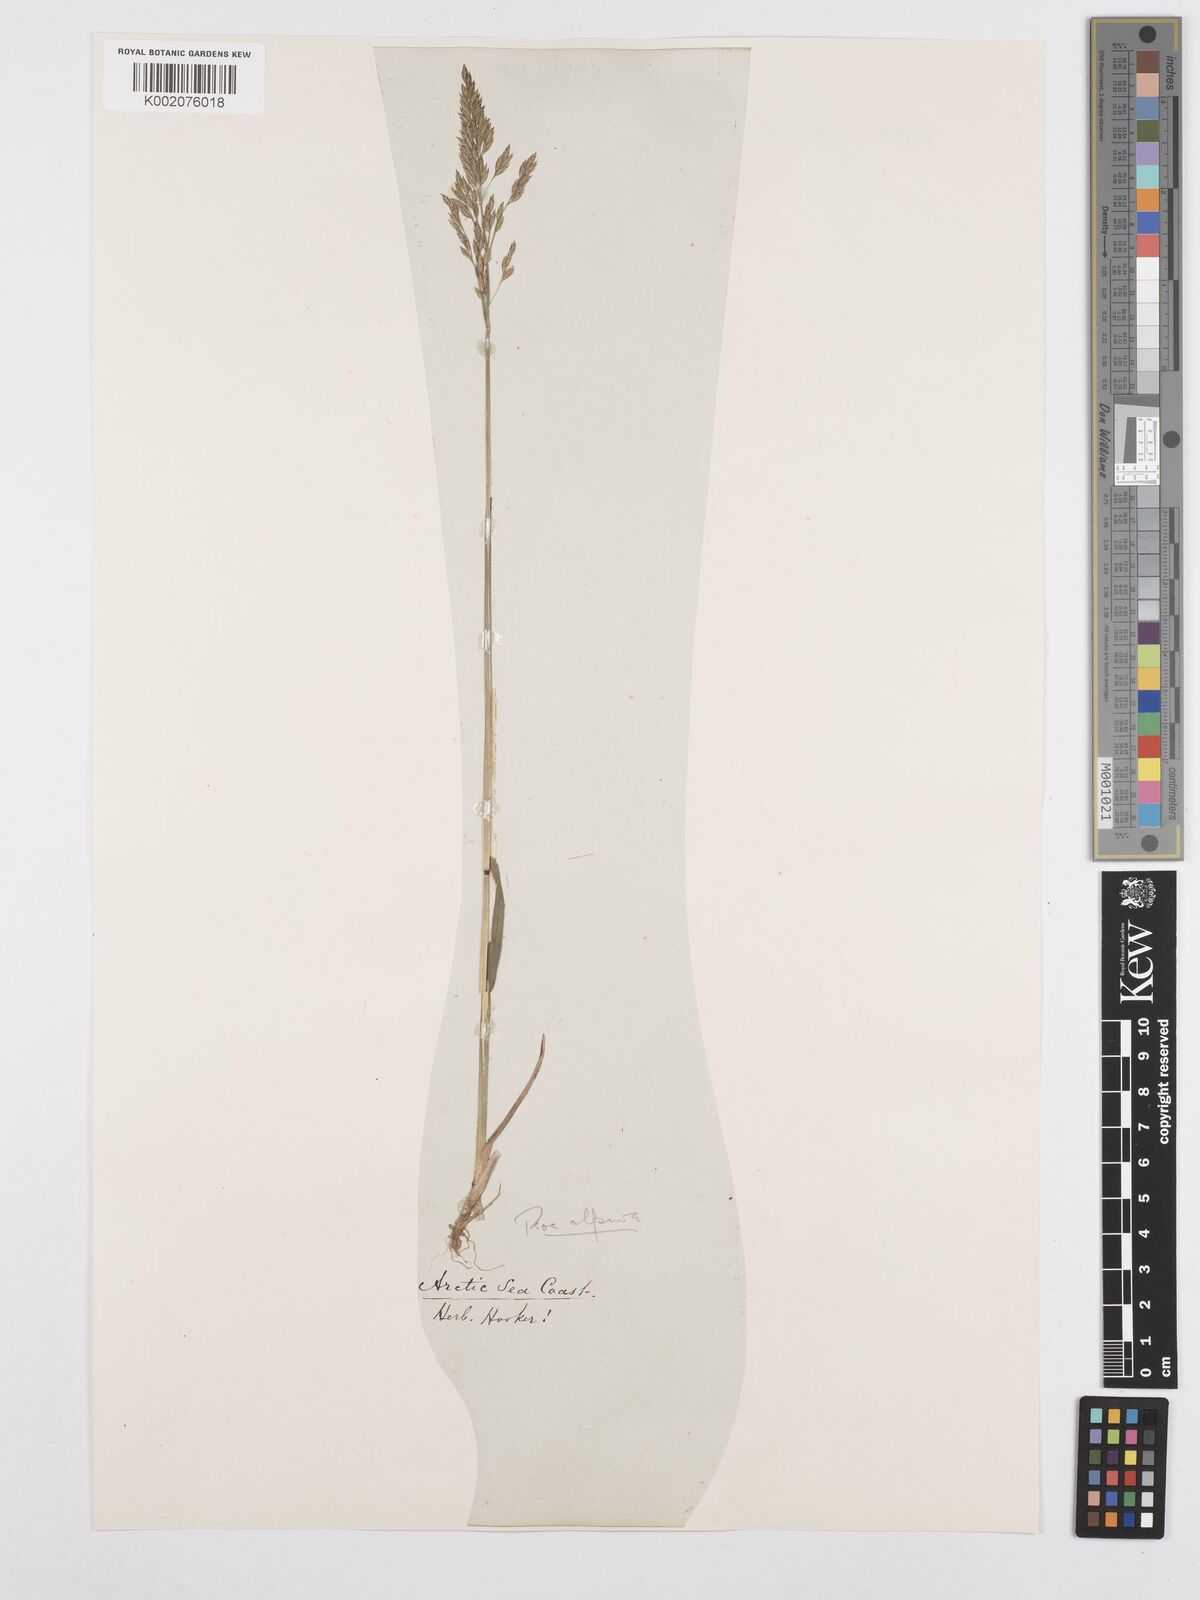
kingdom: Plantae
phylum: Tracheophyta
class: Liliopsida
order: Poales
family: Poaceae
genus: Poa
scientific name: Poa alpina
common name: Alpine bluegrass
